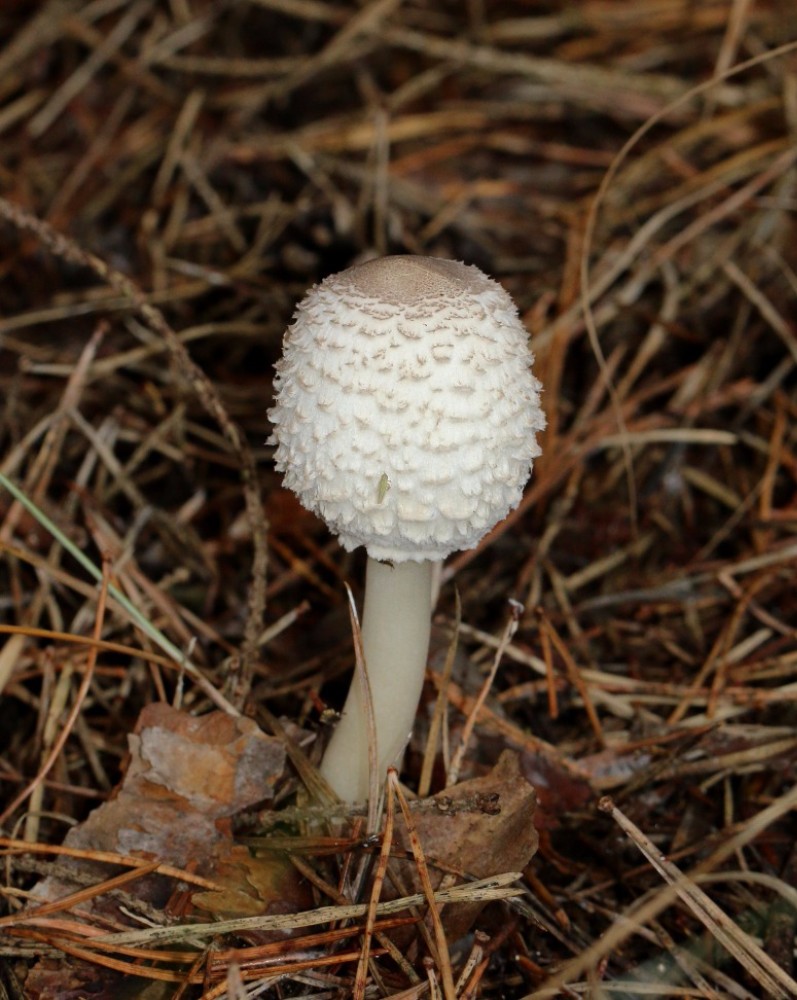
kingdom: Fungi
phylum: Basidiomycota
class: Agaricomycetes
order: Agaricales
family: Agaricaceae
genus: Leucoagaricus
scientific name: Leucoagaricus nympharum
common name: gran-silkehat
